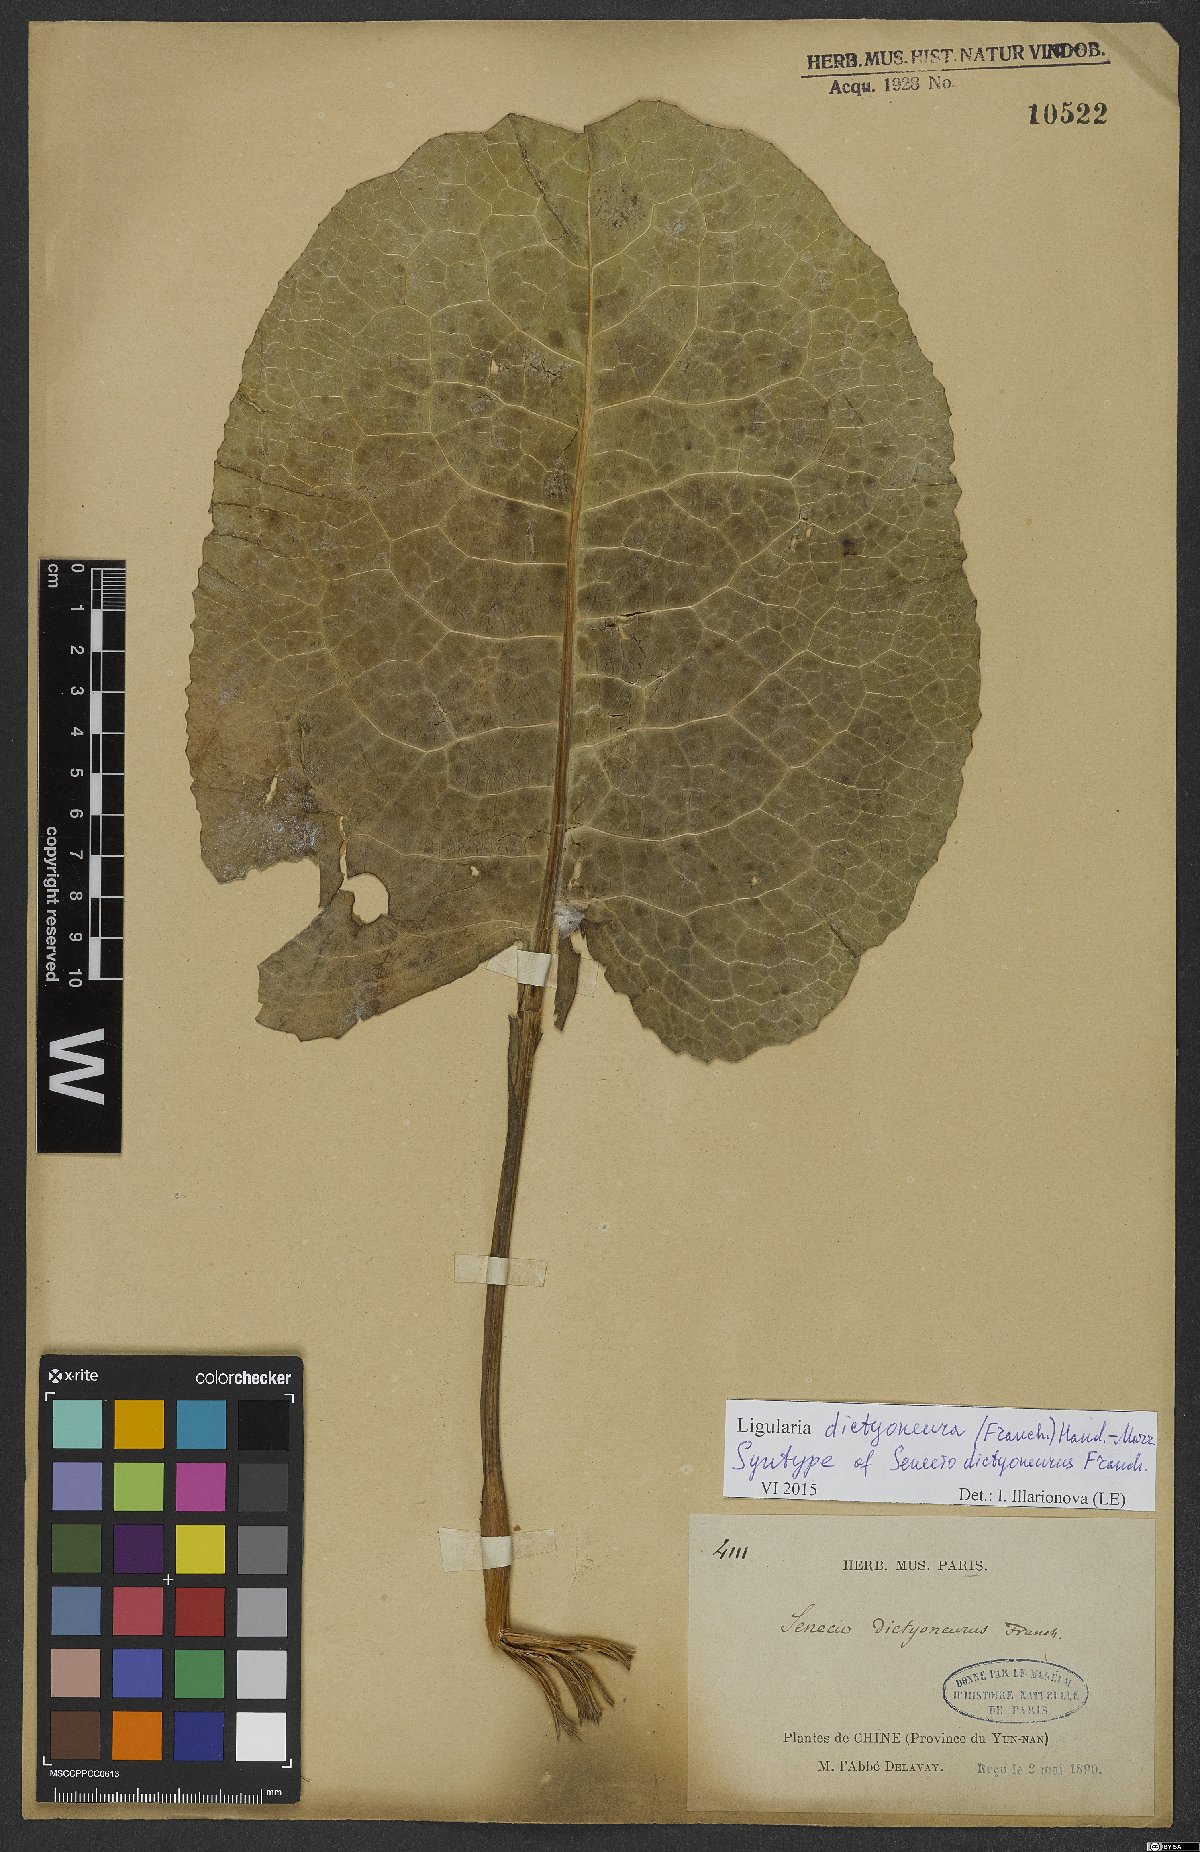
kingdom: Plantae
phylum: Tracheophyta
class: Magnoliopsida
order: Asterales
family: Asteraceae
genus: Ligularia
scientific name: Ligularia dictyoneura
